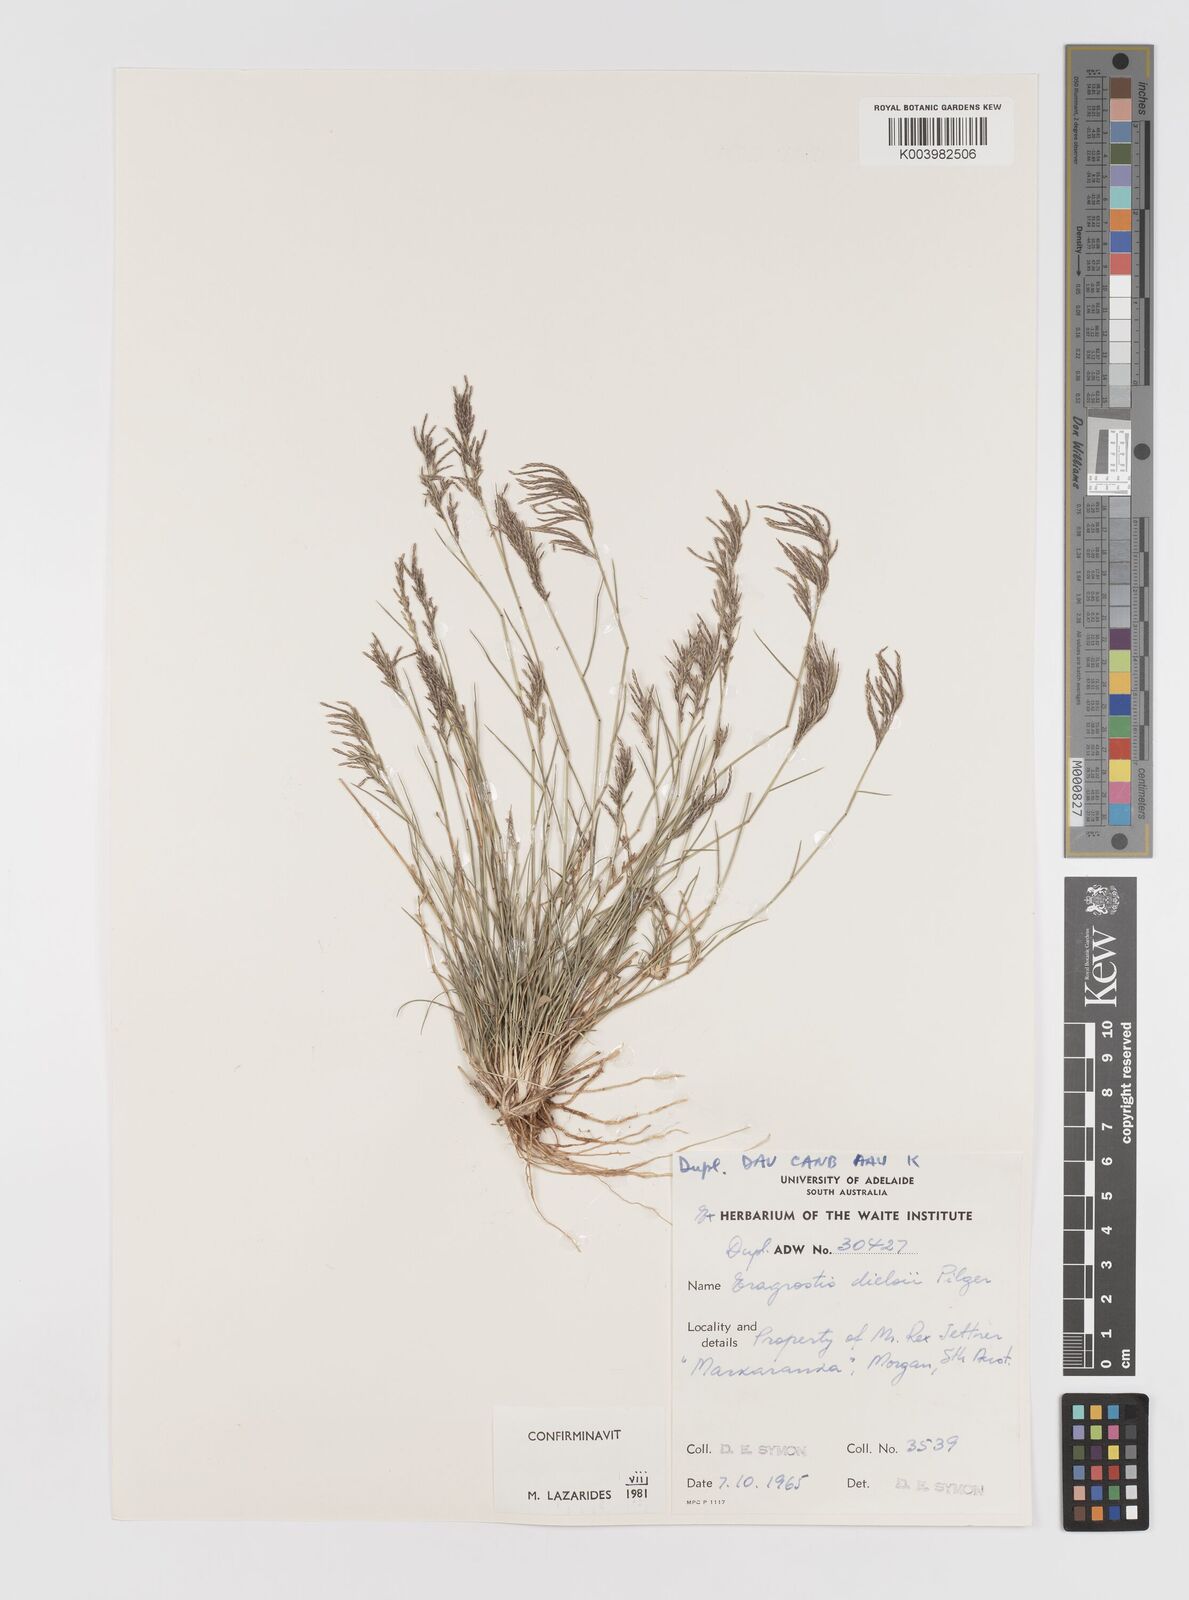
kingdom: Plantae
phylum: Tracheophyta
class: Liliopsida
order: Poales
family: Poaceae
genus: Eragrostis
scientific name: Eragrostis dielsii
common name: Lovegrass
